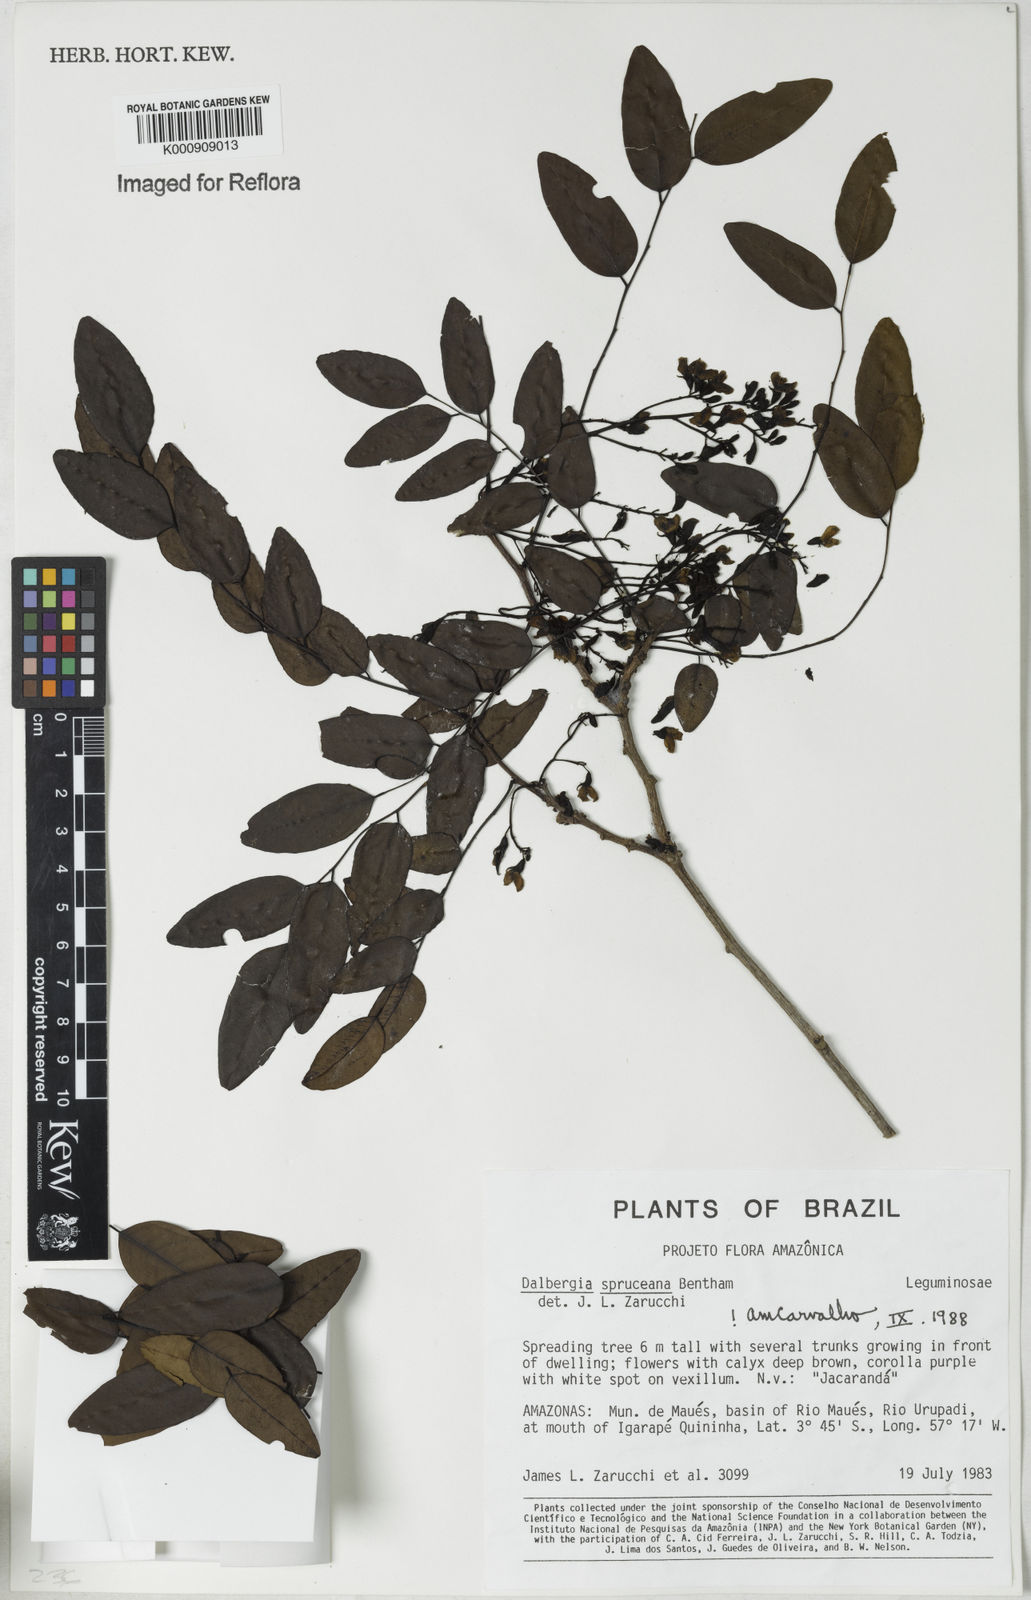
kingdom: Plantae
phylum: Tracheophyta
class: Magnoliopsida
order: Fabales
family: Fabaceae
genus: Dalbergia
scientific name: Dalbergia spruceana
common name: Amazon rosewood
